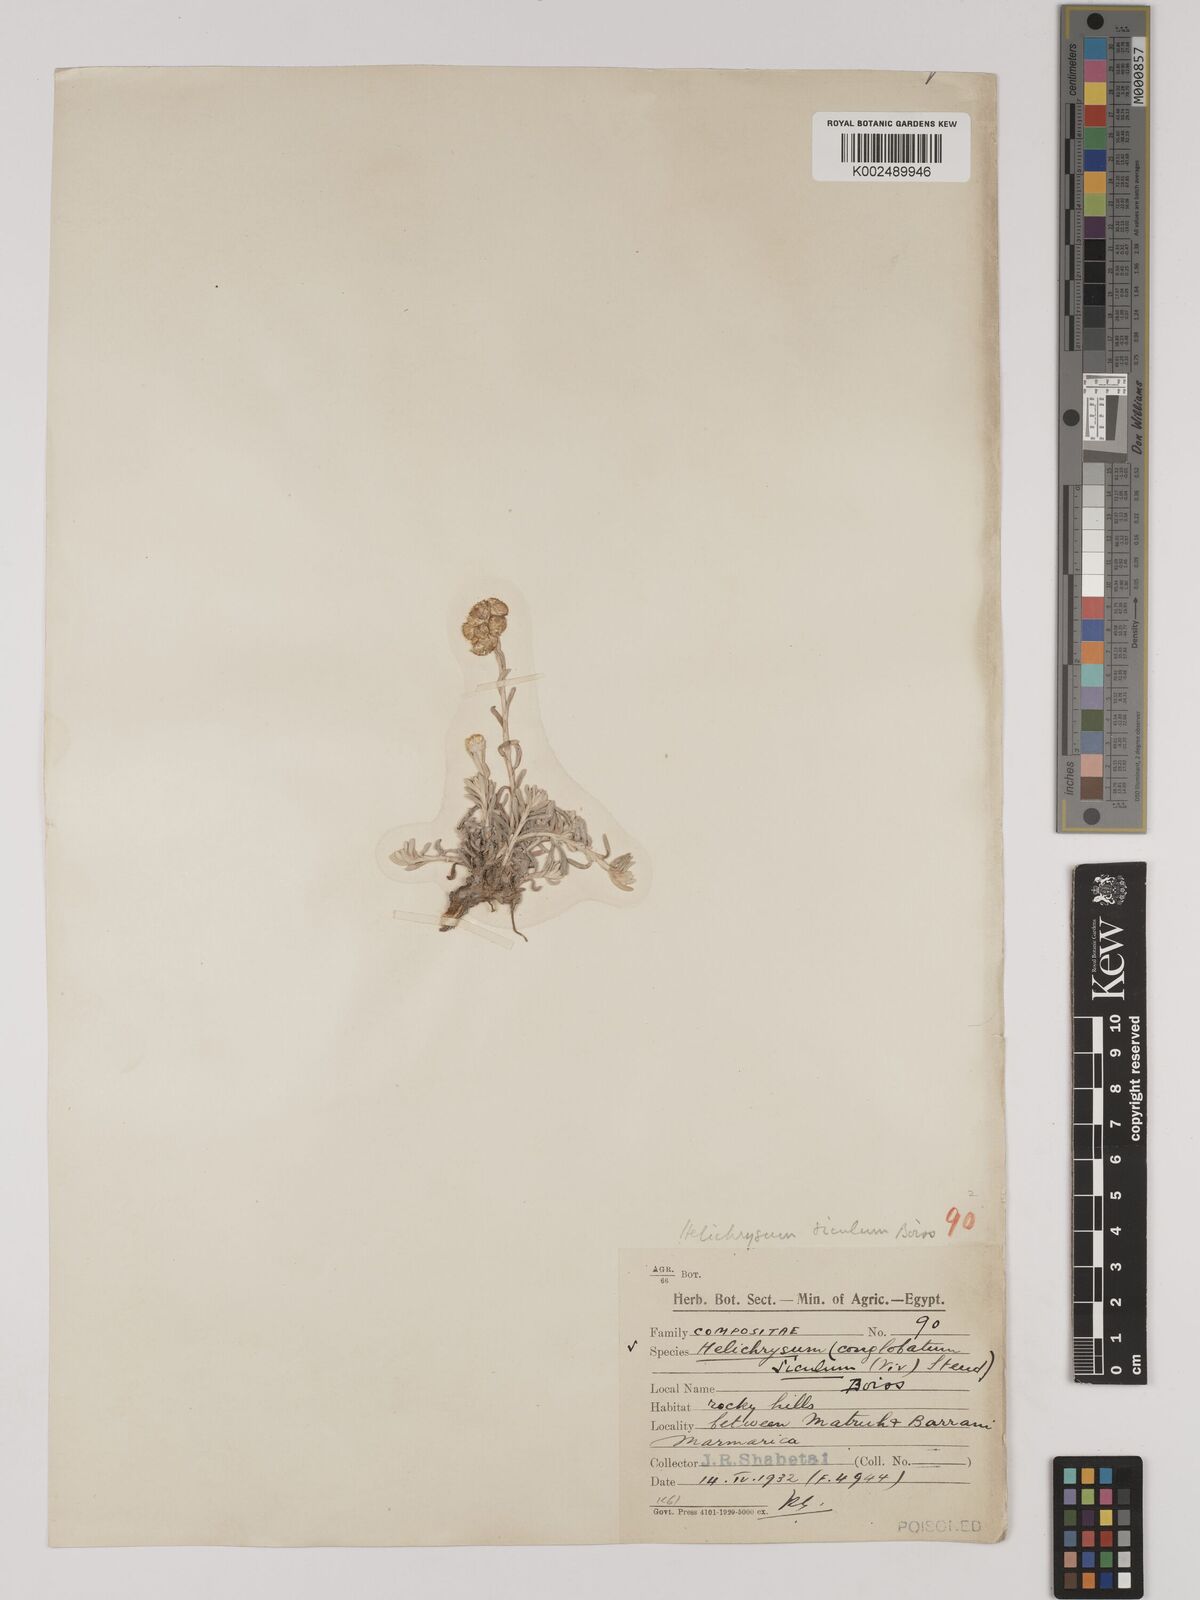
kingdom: Plantae
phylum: Tracheophyta
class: Magnoliopsida
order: Asterales
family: Asteraceae
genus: Helichrysum
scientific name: Helichrysum stoechas
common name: Goldilocks
